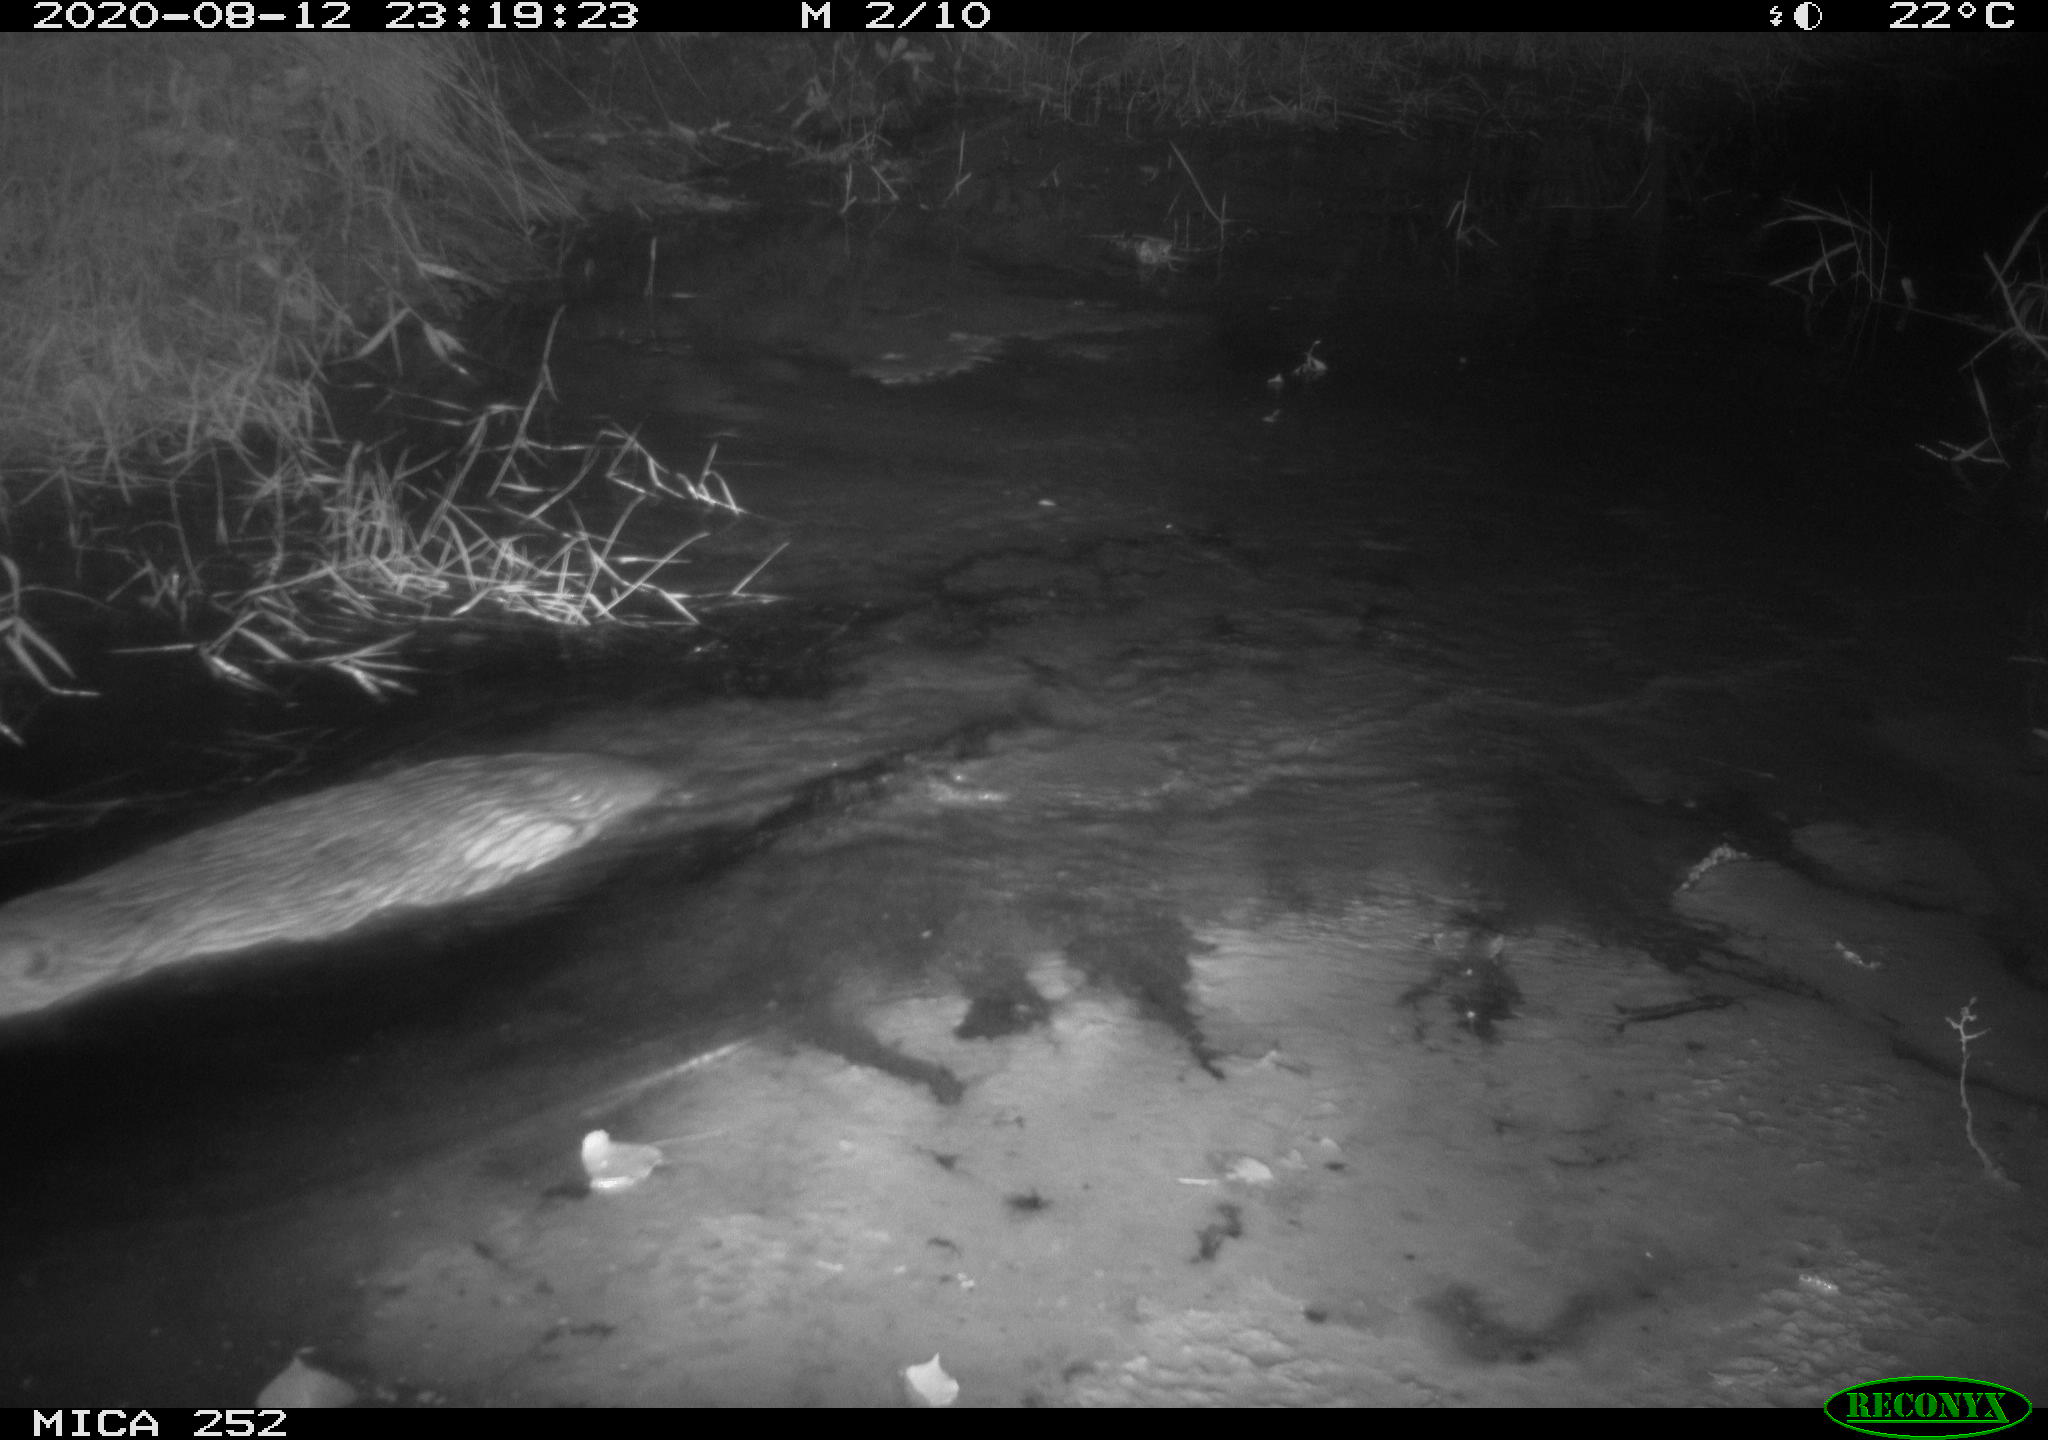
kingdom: Animalia
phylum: Chordata
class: Mammalia
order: Rodentia
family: Castoridae
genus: Castor
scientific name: Castor fiber
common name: Eurasian beaver
